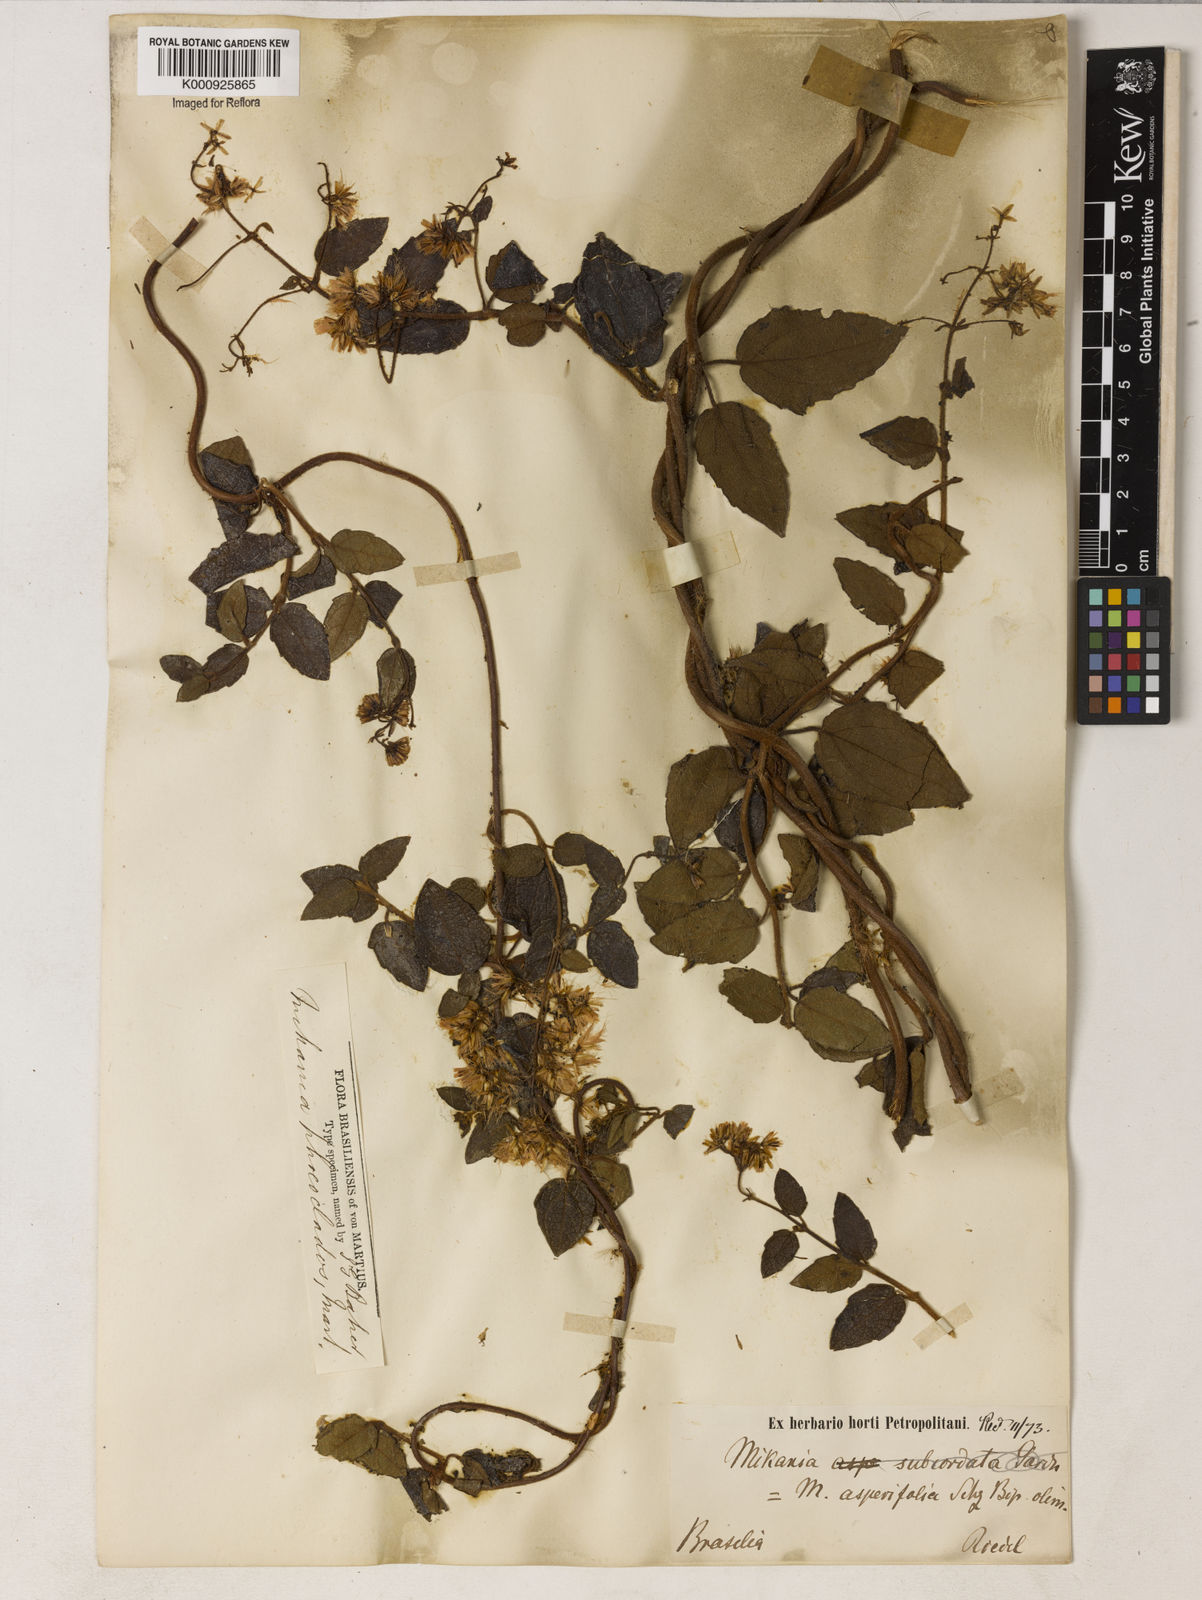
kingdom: Plantae
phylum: Tracheophyta
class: Magnoliopsida
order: Asterales
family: Asteraceae
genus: Mikania
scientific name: Mikania
